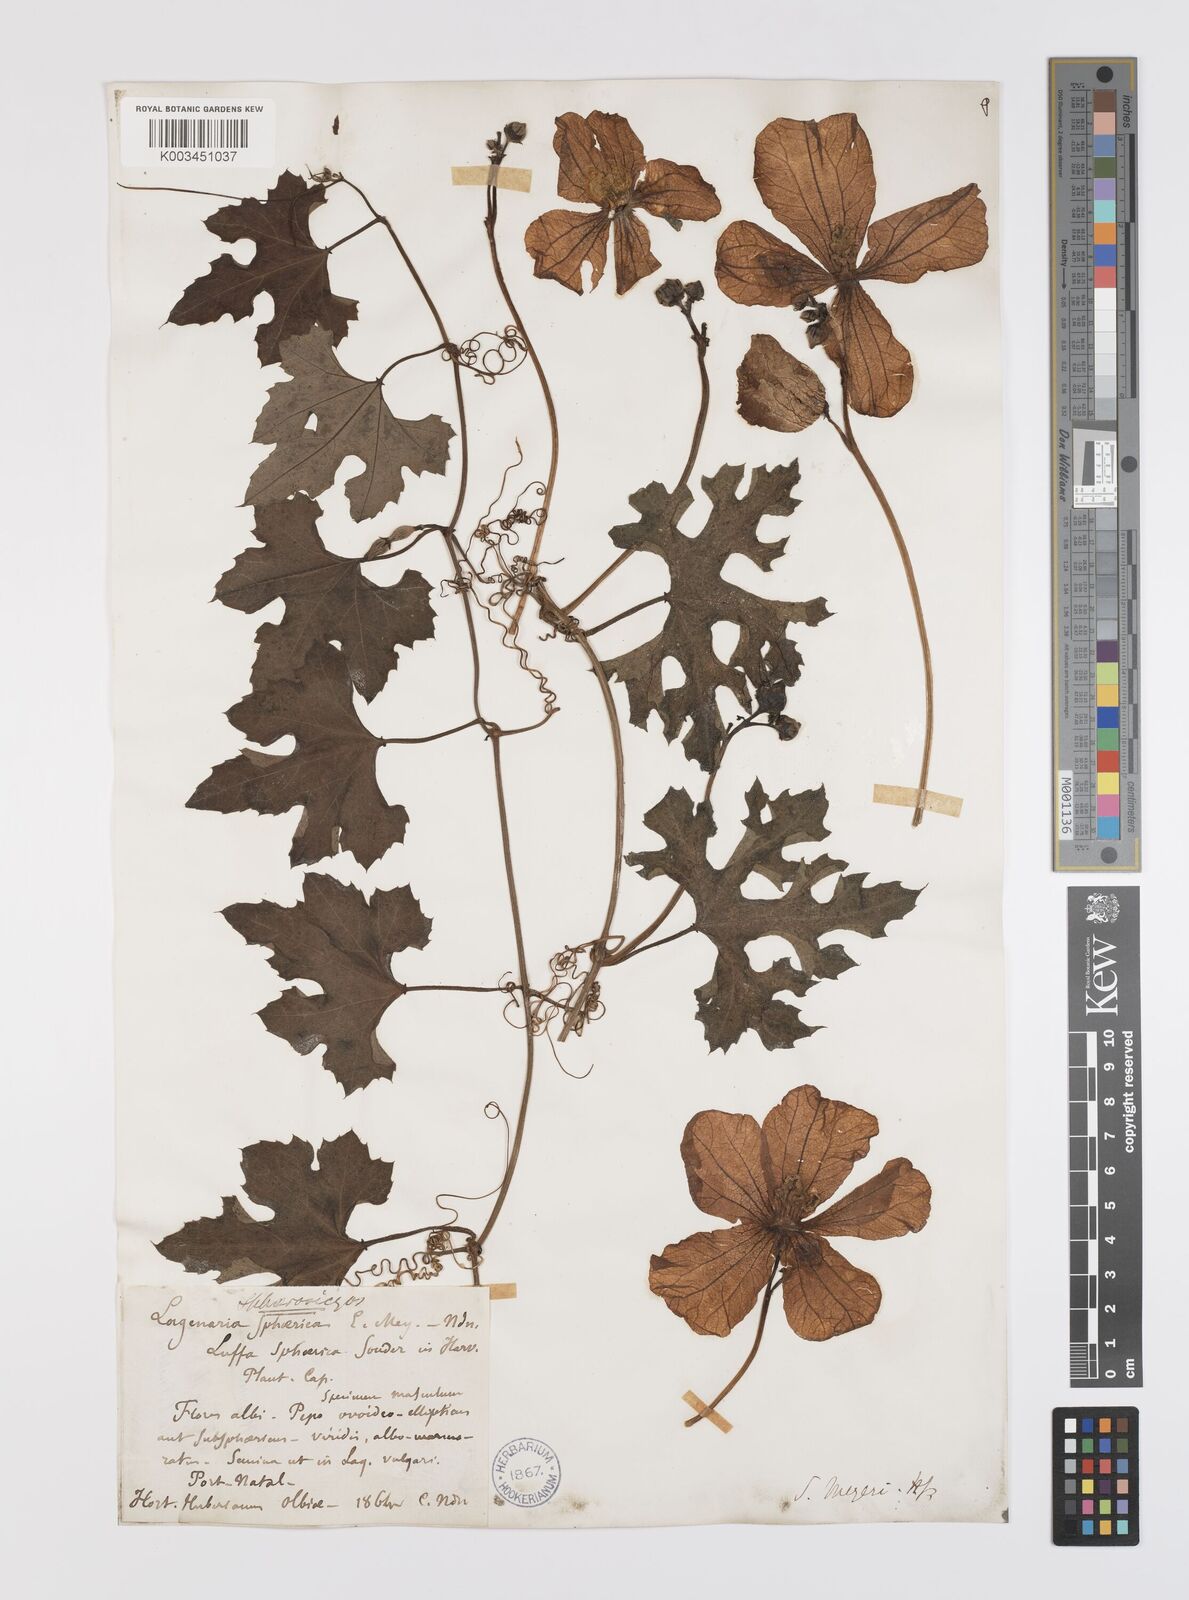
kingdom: Plantae
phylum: Tracheophyta
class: Magnoliopsida
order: Cucurbitales
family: Cucurbitaceae
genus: Lagenaria
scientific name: Lagenaria sphaerica
